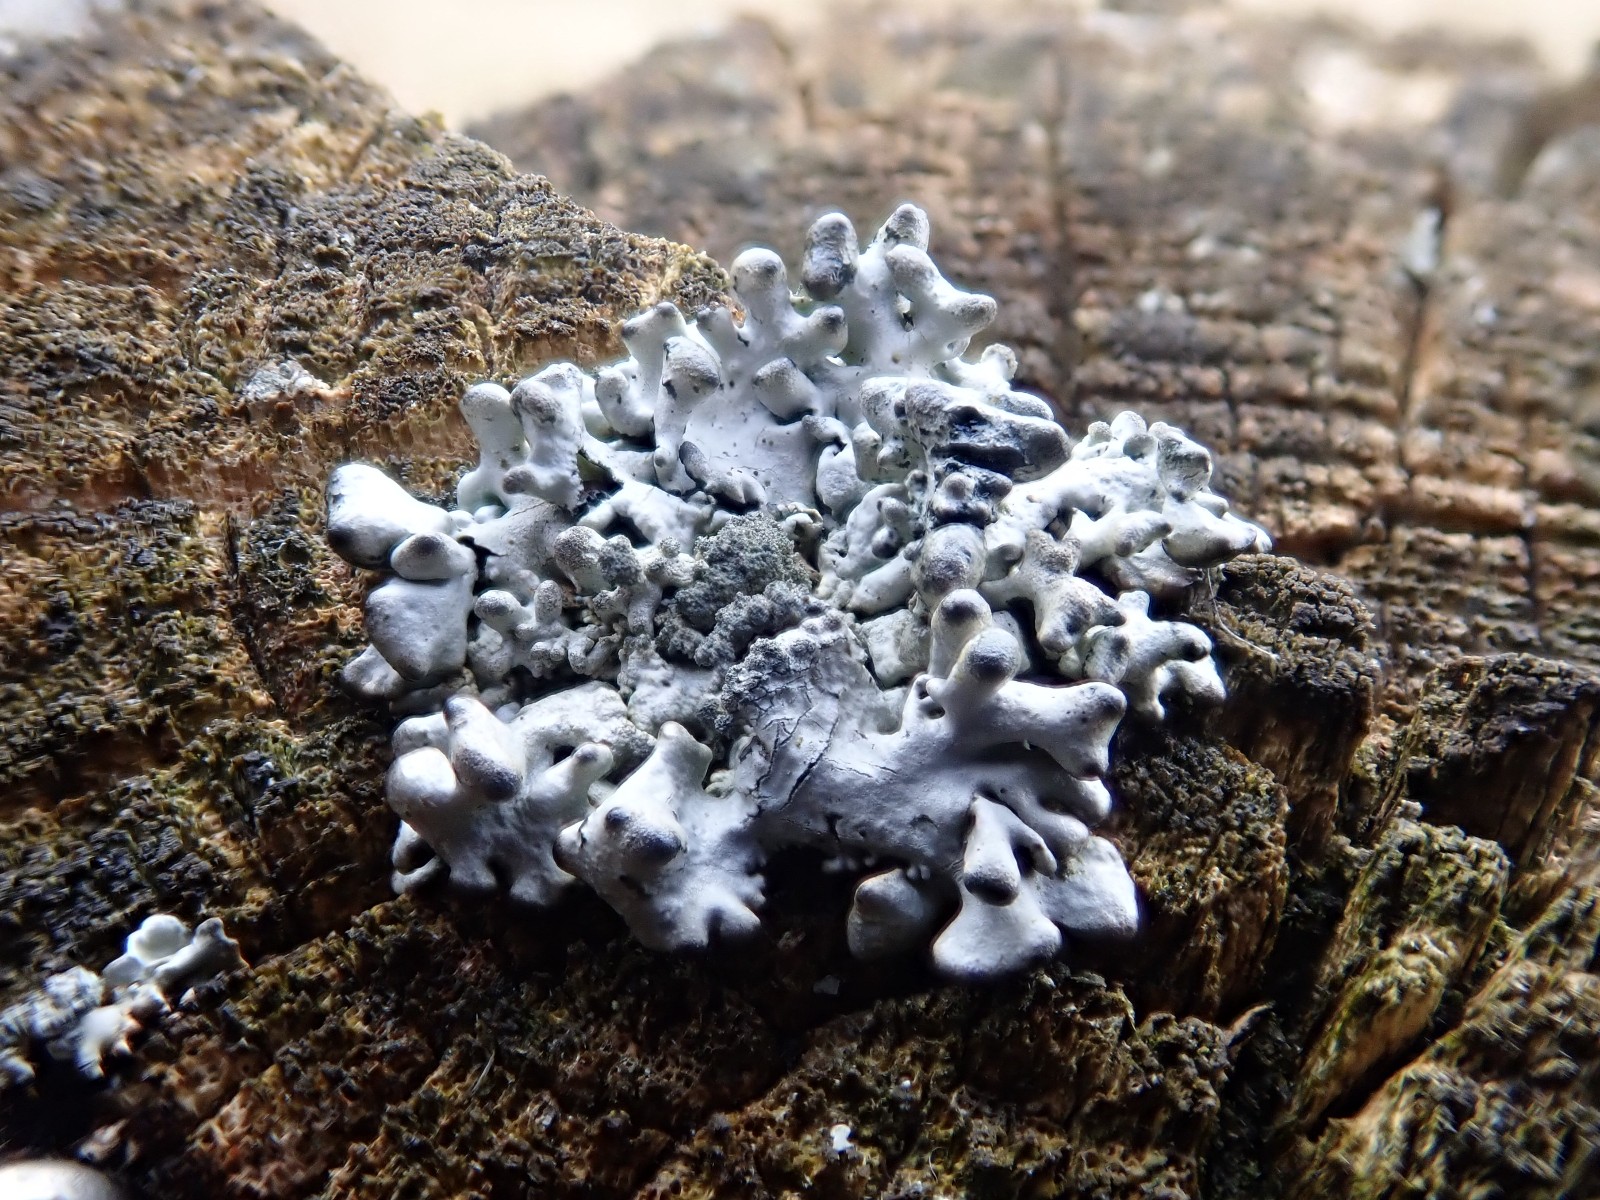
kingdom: Fungi
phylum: Ascomycota
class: Lecanoromycetes
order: Lecanorales
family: Parmeliaceae
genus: Hypogymnia
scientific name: Hypogymnia tubulosa
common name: finger-kvistlav
